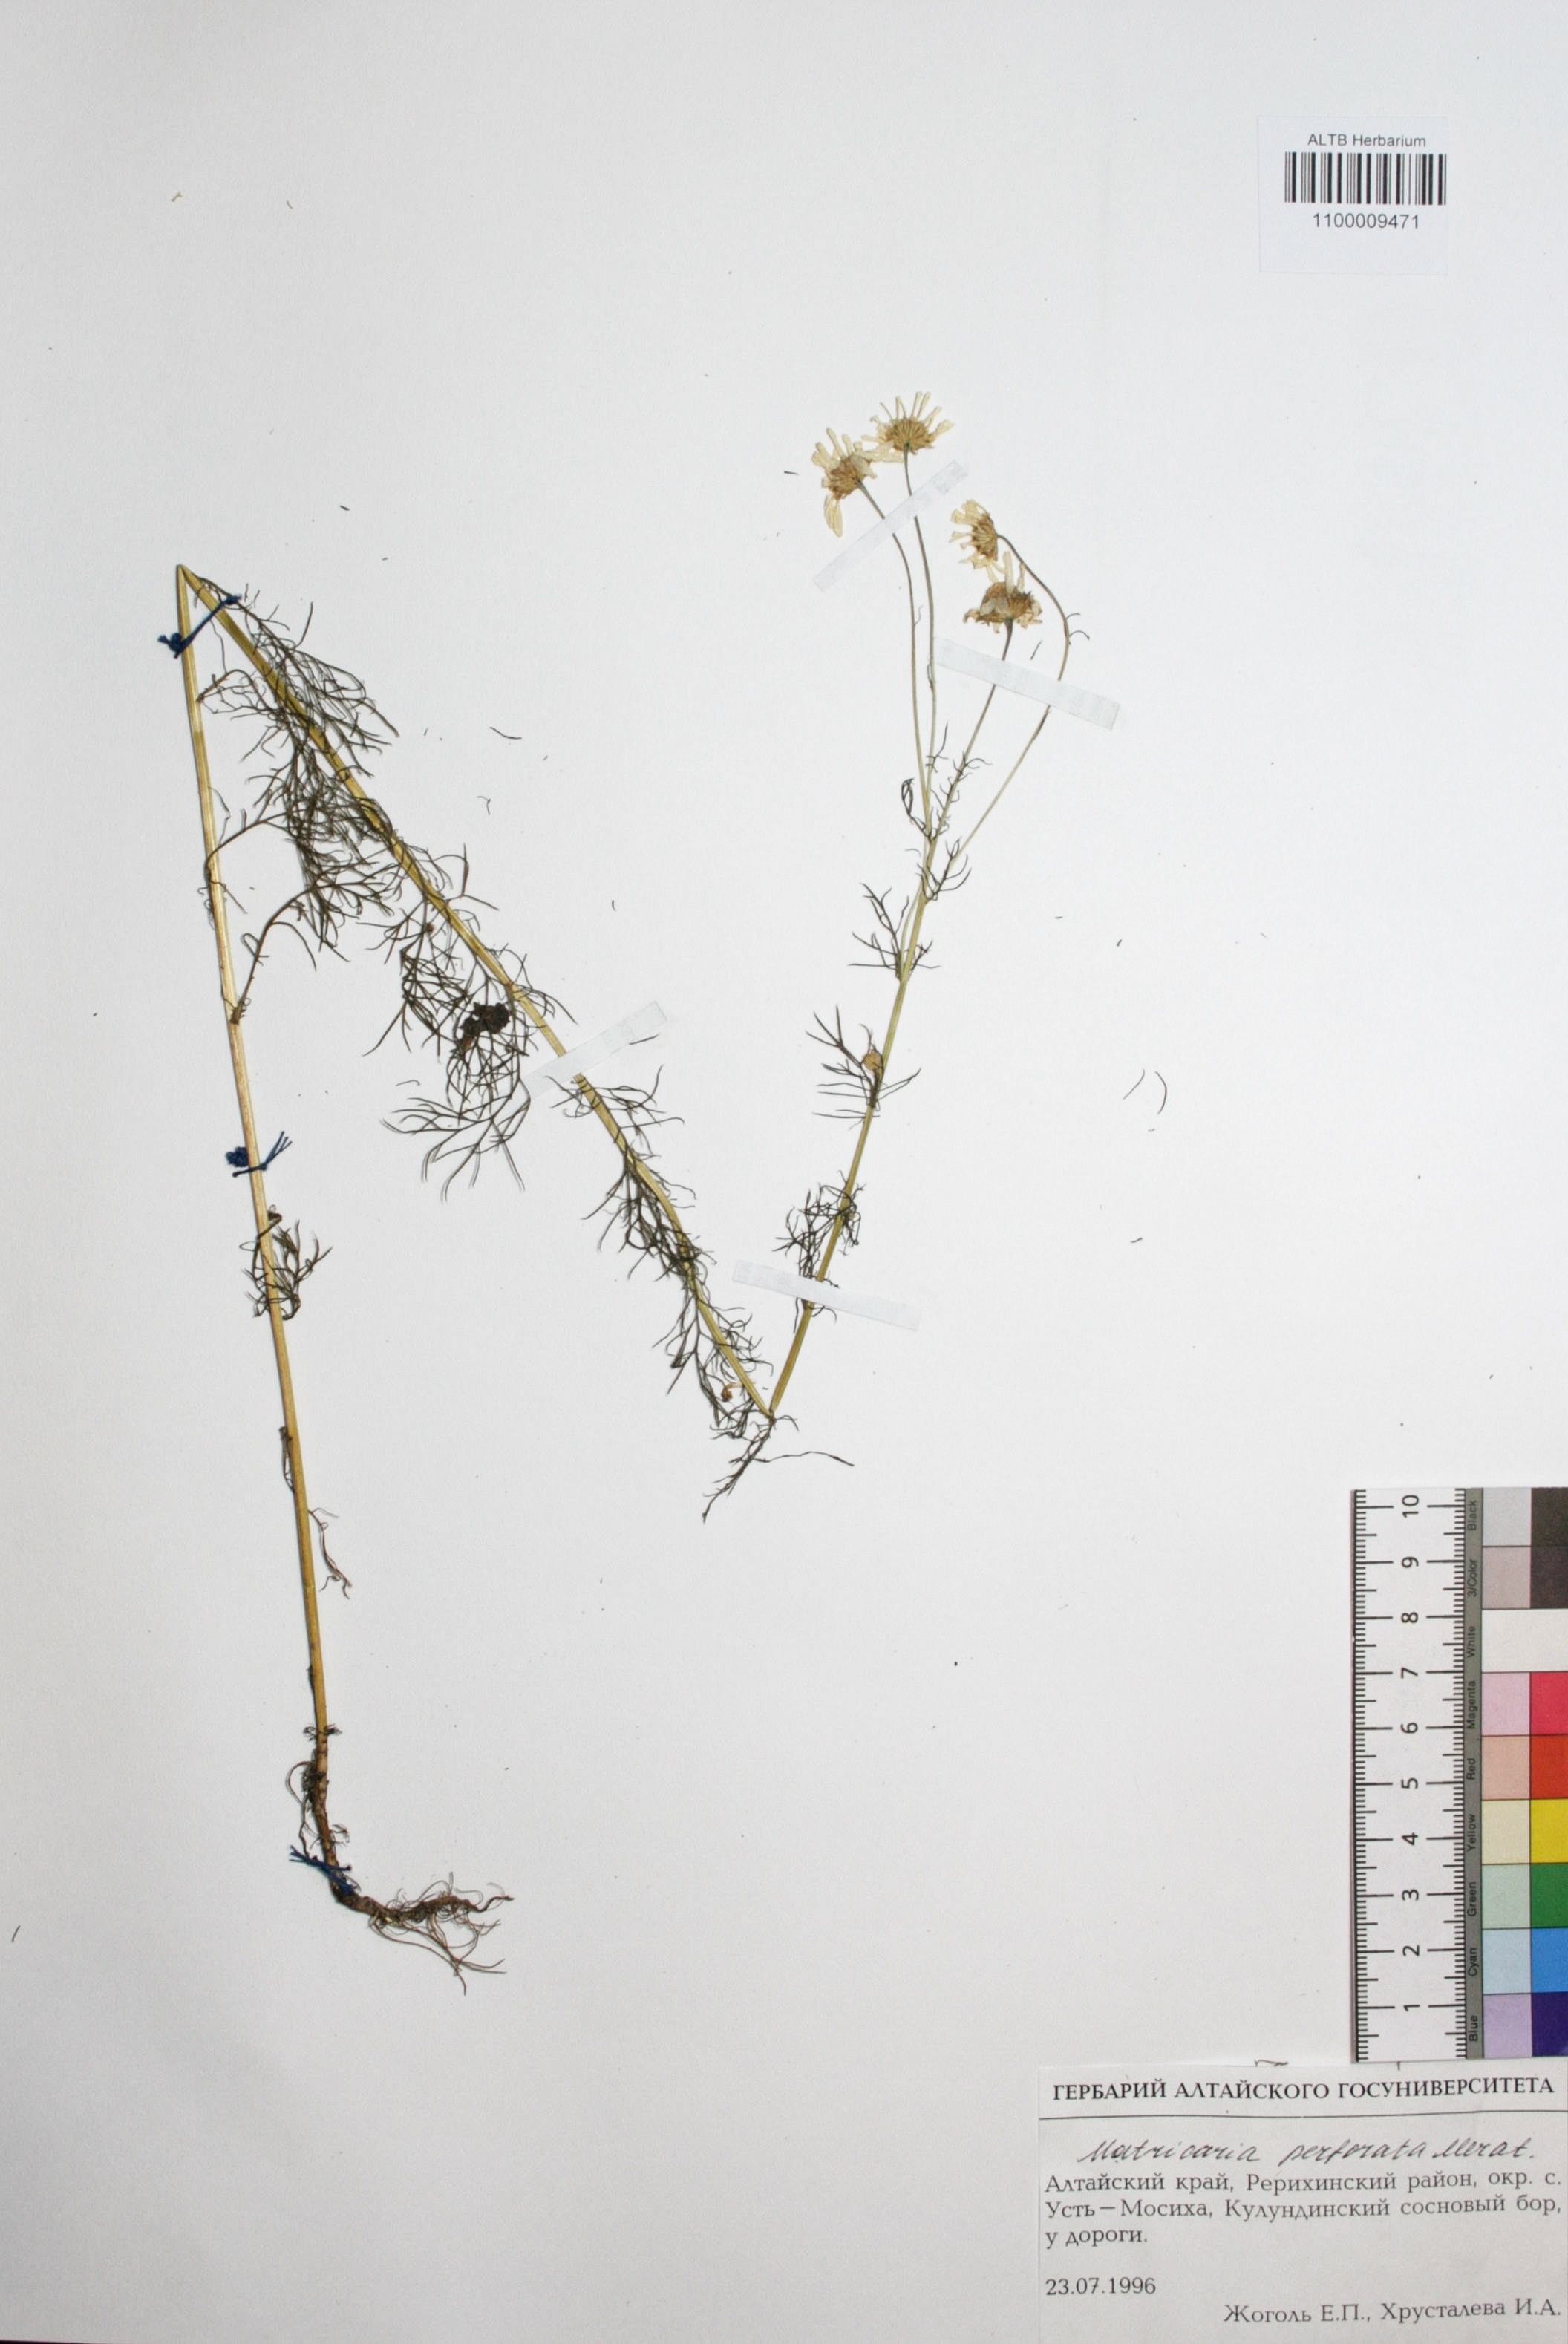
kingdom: Plantae
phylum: Tracheophyta
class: Magnoliopsida
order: Asterales
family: Asteraceae
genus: Tripleurospermum
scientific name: Tripleurospermum inodorum
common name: Scentless mayweed
